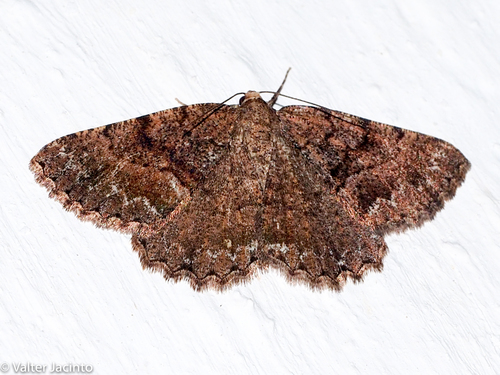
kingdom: Animalia
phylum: Arthropoda
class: Insecta
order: Lepidoptera
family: Geometridae
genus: Selidosema
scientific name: Selidosema taeniolaria
